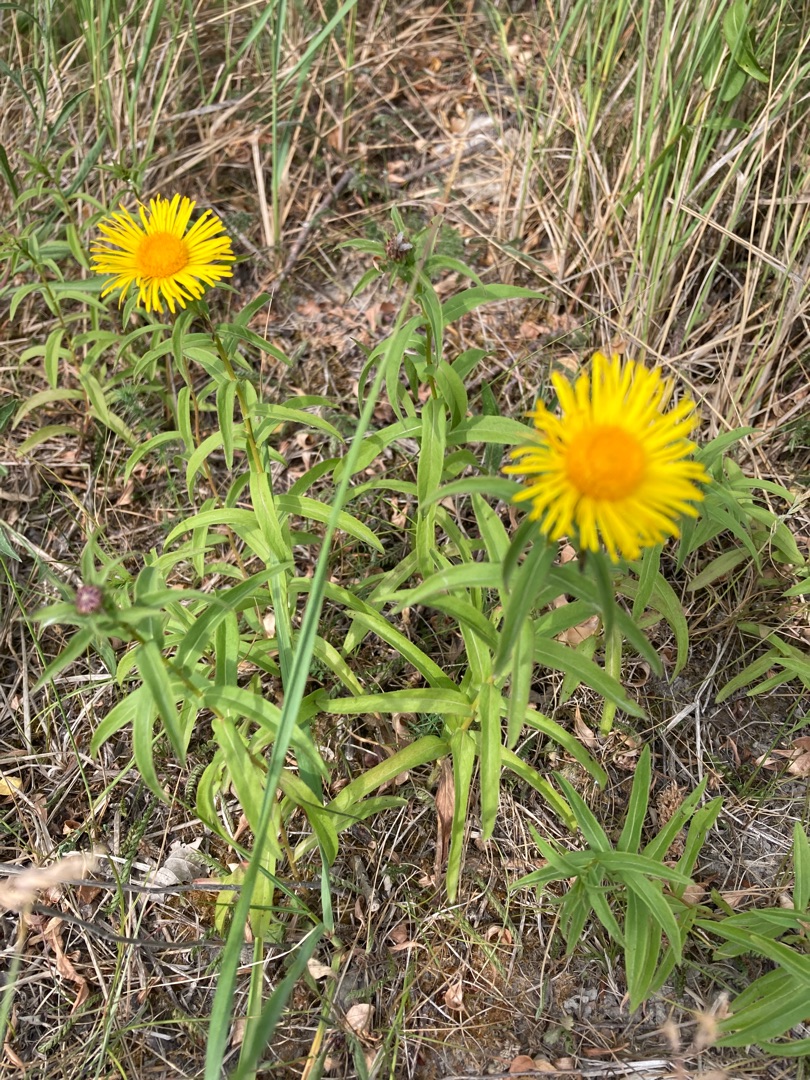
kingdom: Plantae
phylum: Tracheophyta
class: Magnoliopsida
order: Asterales
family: Asteraceae
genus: Pentanema
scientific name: Pentanema salicinum
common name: Pile-alant
